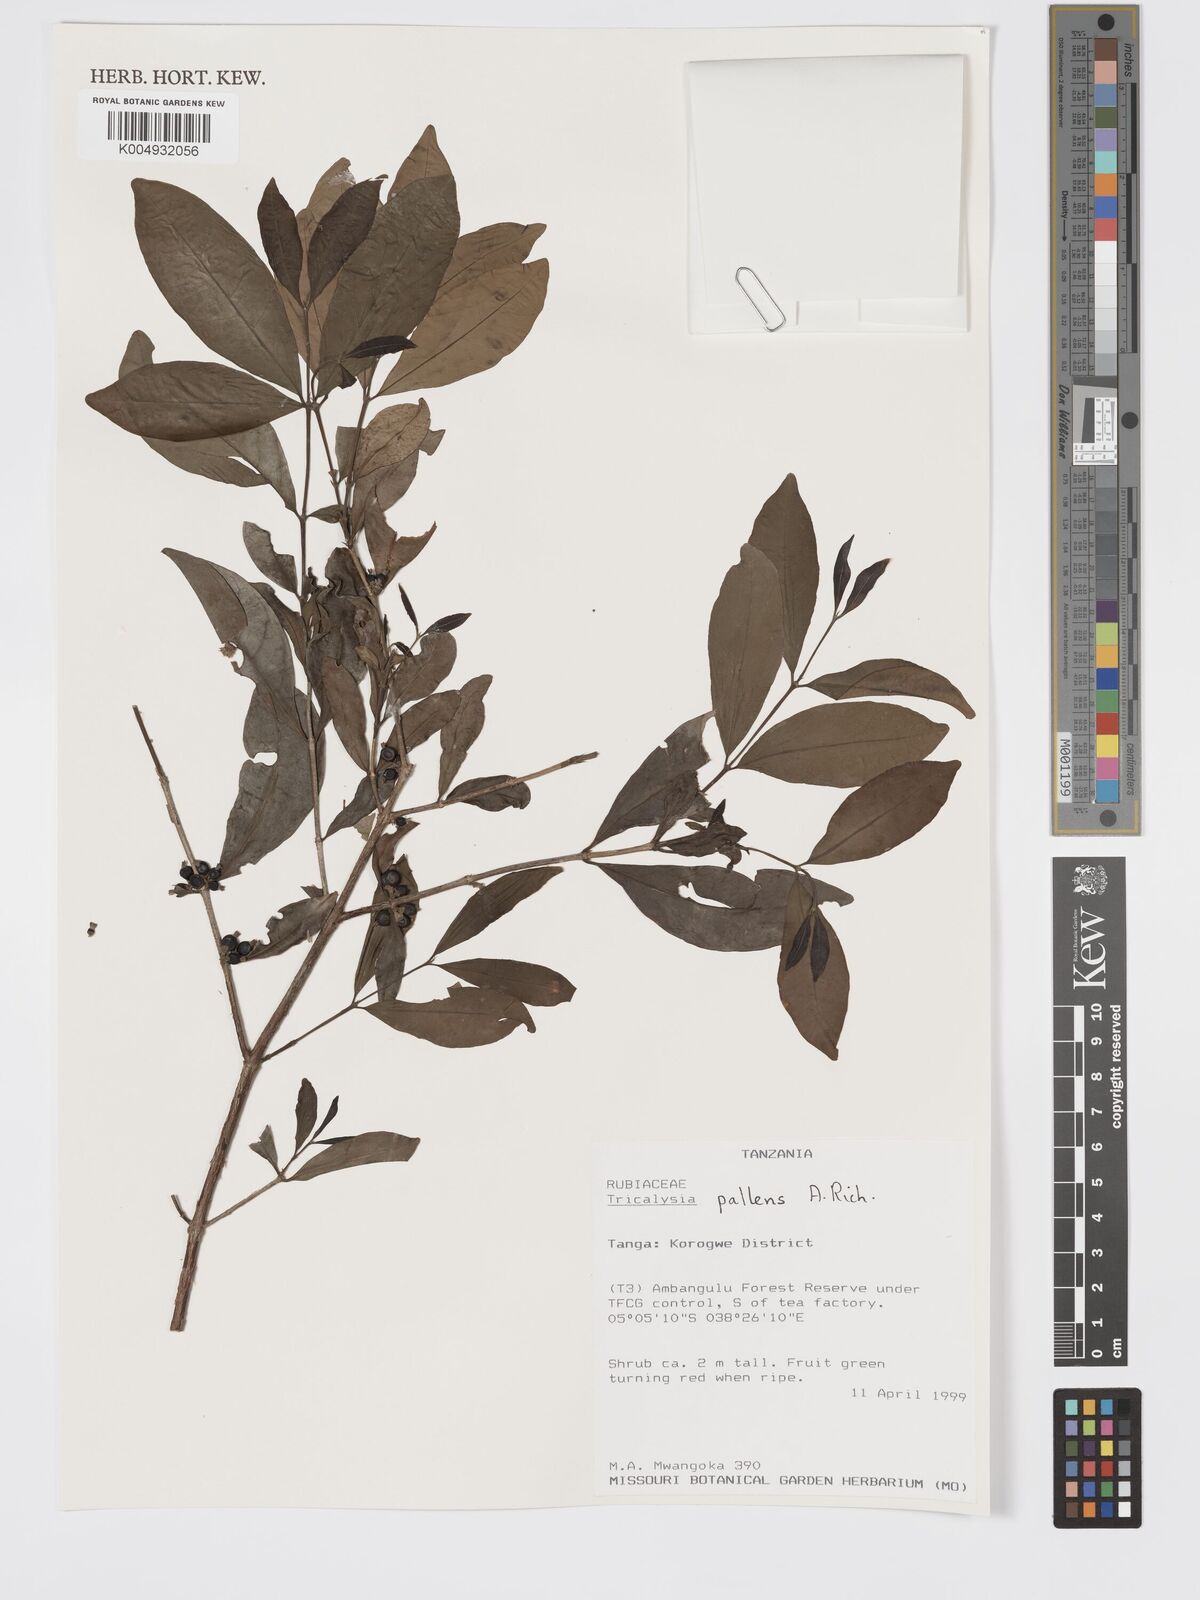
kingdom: Plantae
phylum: Tracheophyta
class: Magnoliopsida
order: Gentianales
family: Rubiaceae
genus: Tricalysia
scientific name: Tricalysia pallens
